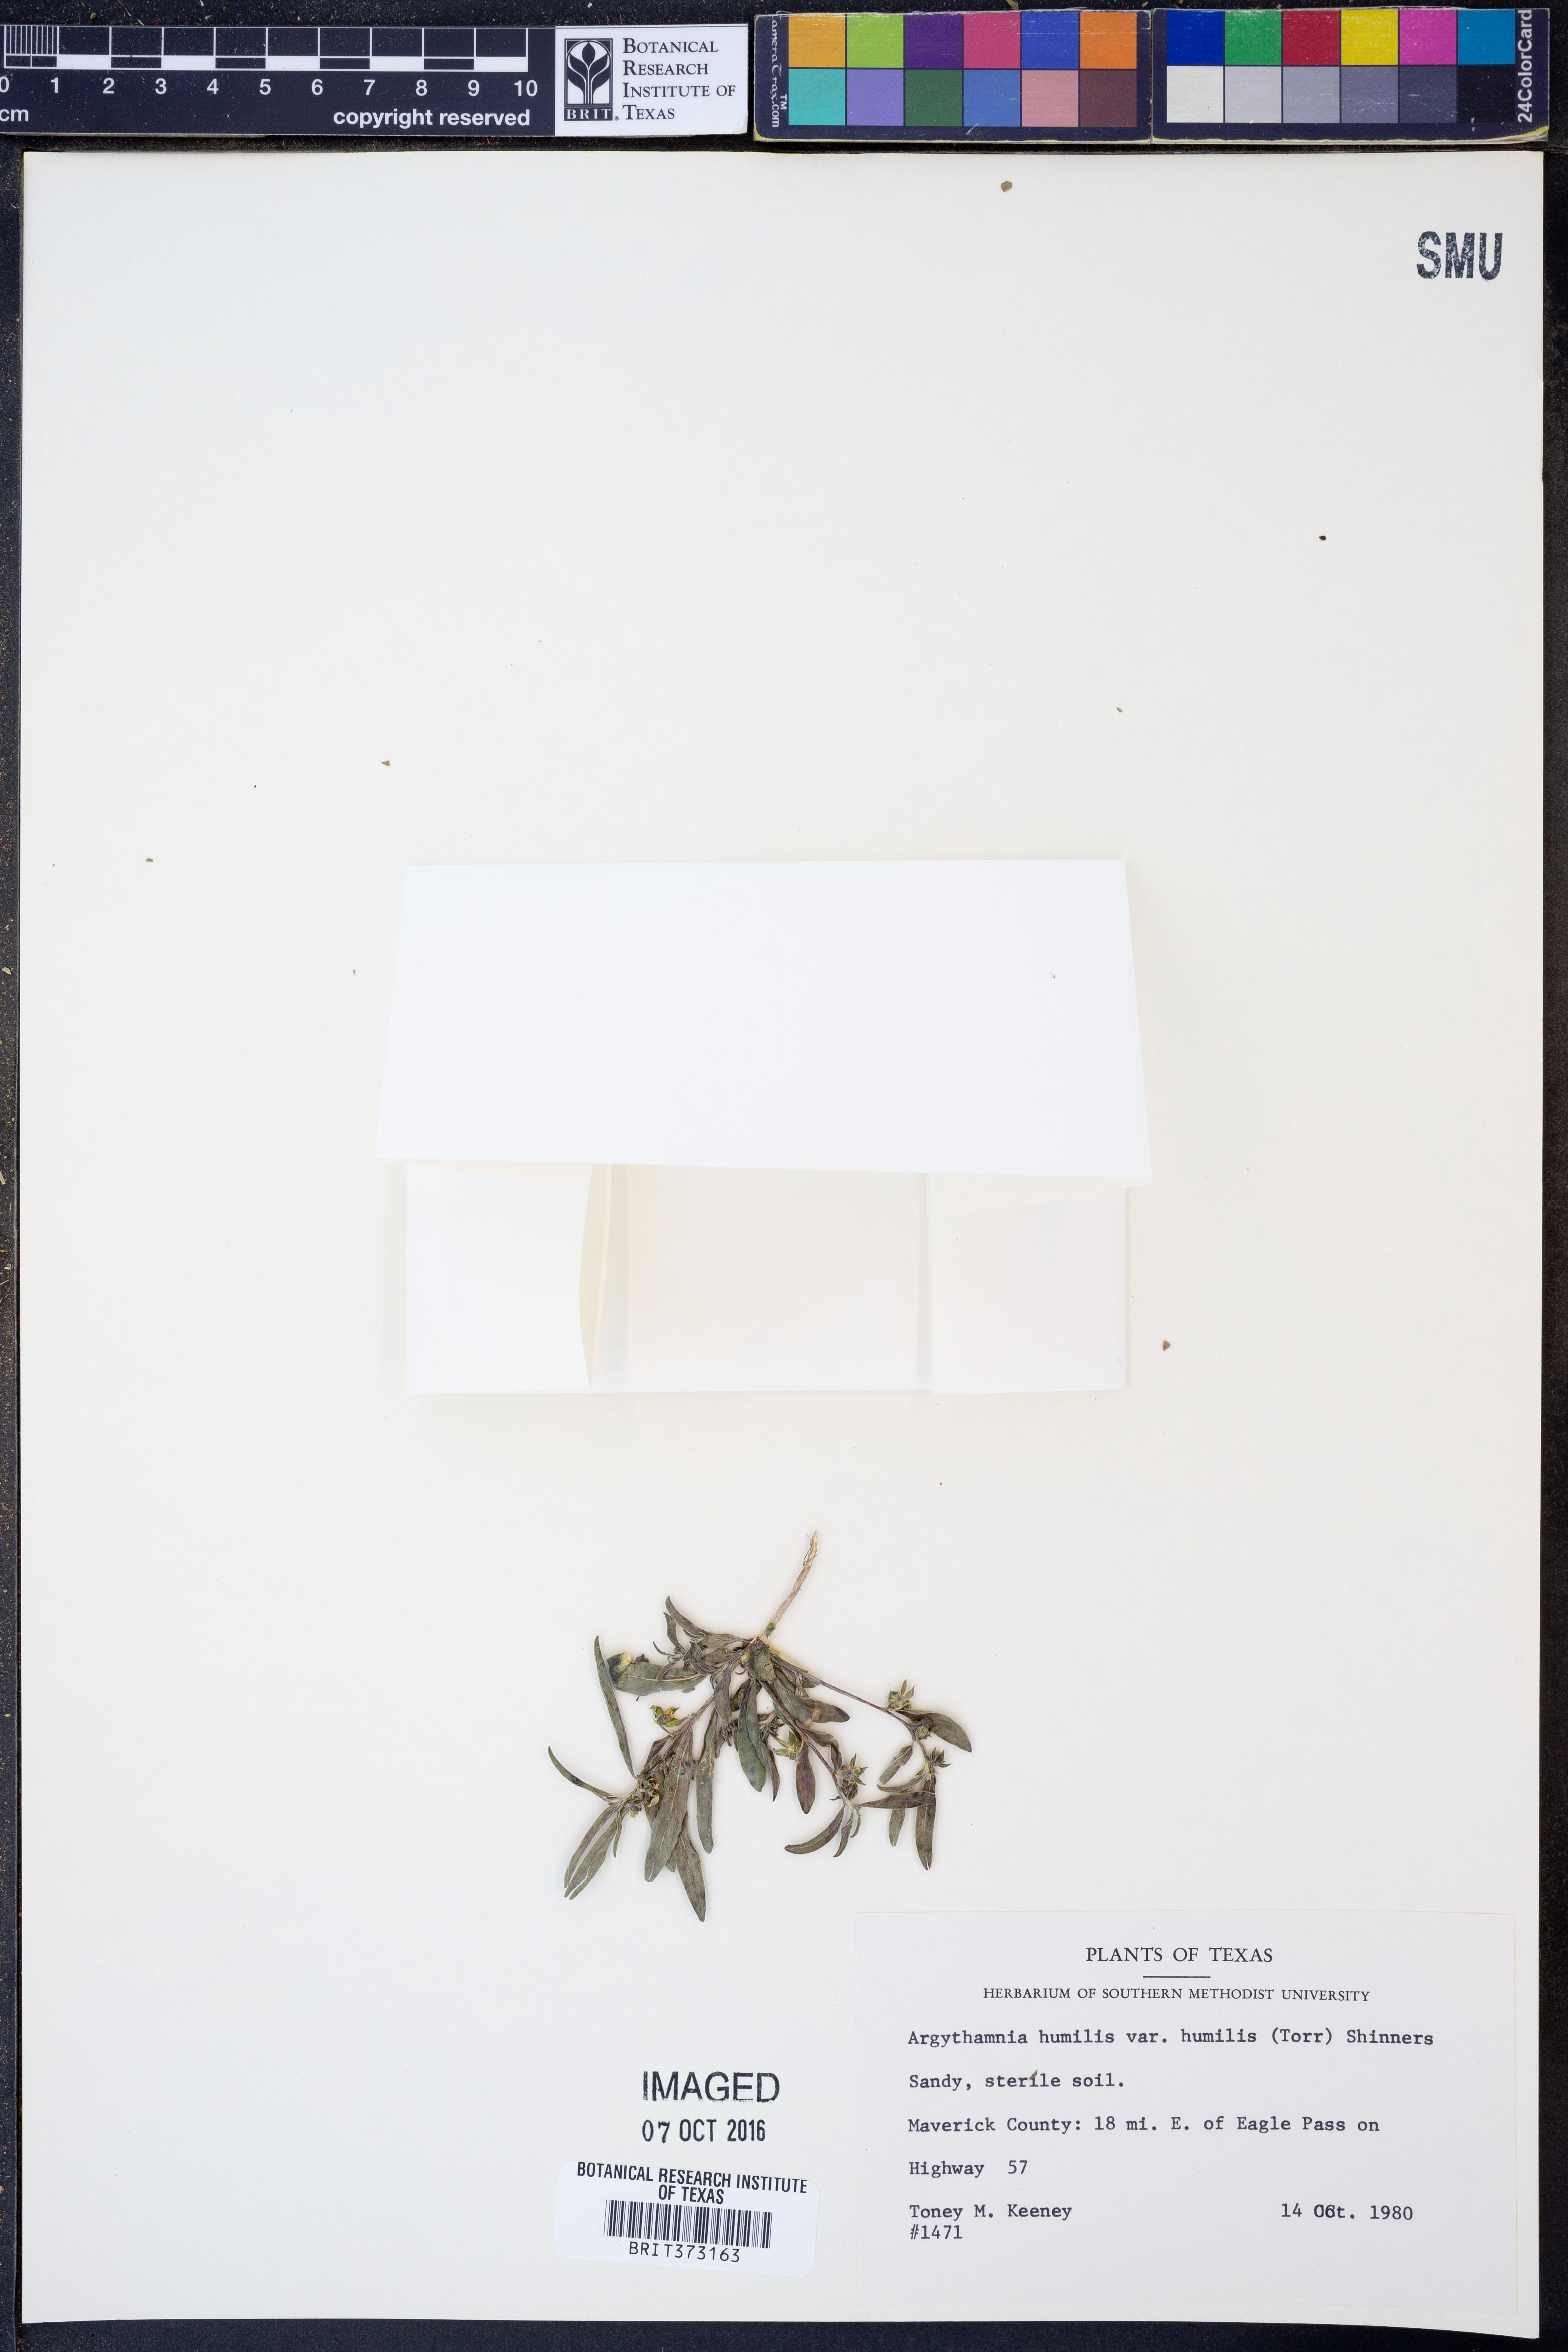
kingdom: Plantae
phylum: Tracheophyta
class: Magnoliopsida
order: Malpighiales
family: Euphorbiaceae
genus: Ditaxis
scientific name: Ditaxis humilis
